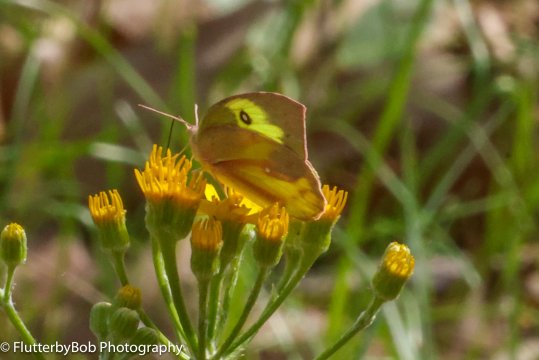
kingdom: Animalia
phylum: Arthropoda
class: Insecta
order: Lepidoptera
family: Pieridae
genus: Zerene
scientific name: Zerene cesonia
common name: Southern Dogface
